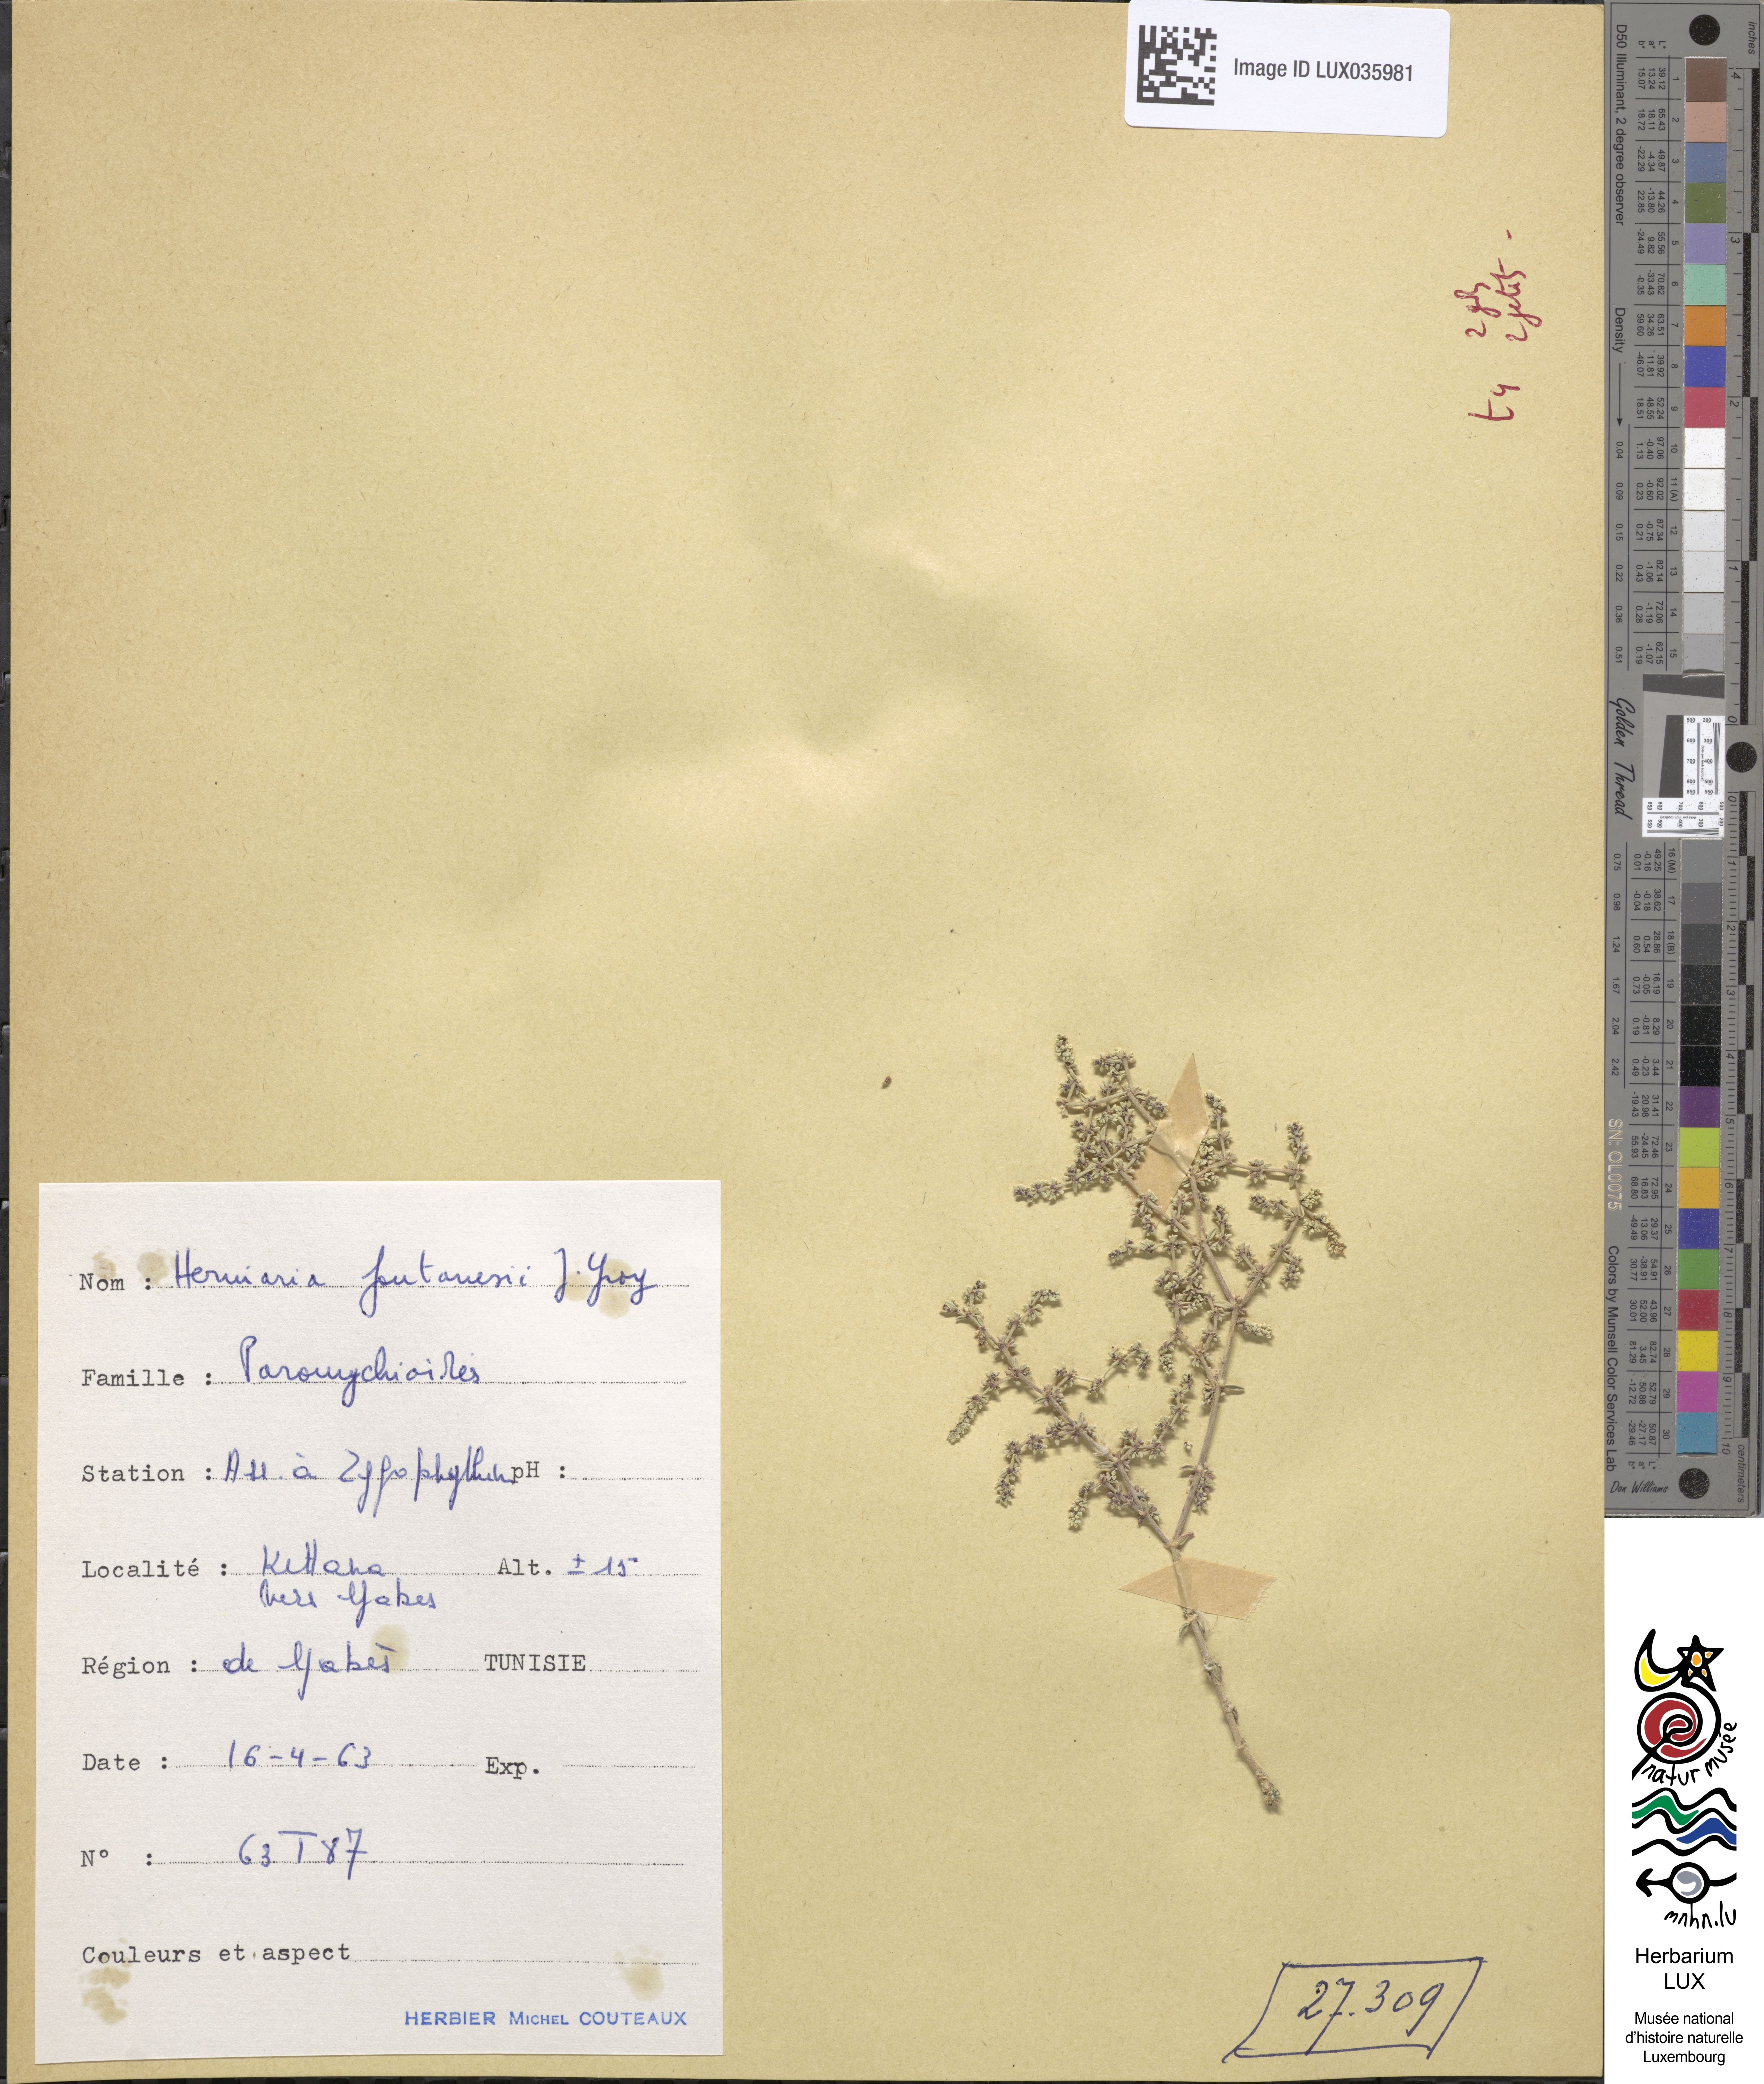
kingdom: Plantae
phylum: Tracheophyta
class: Magnoliopsida
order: Caryophyllales
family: Caryophyllaceae
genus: Herniaria
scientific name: Herniaria fontanesii
